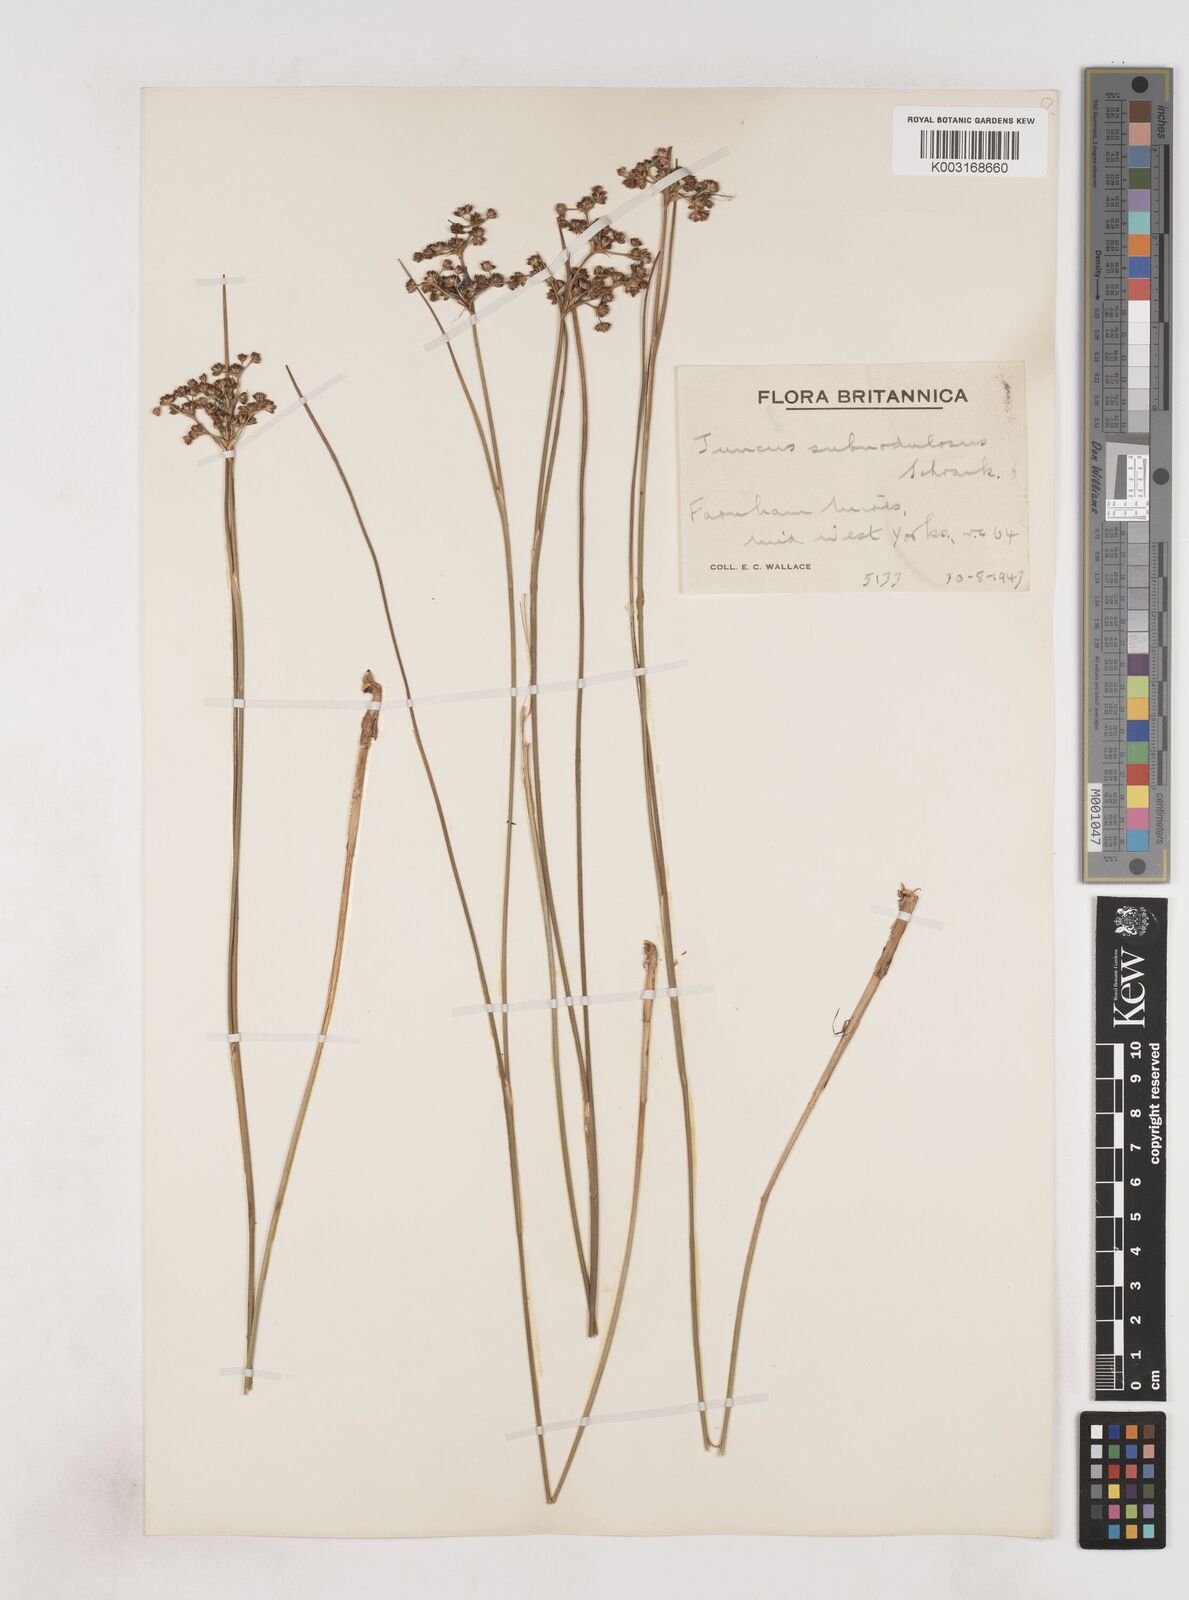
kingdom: Plantae
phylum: Tracheophyta
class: Liliopsida
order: Poales
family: Juncaceae
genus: Juncus
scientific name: Juncus subnodulosus
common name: Blunt-flowered rush
